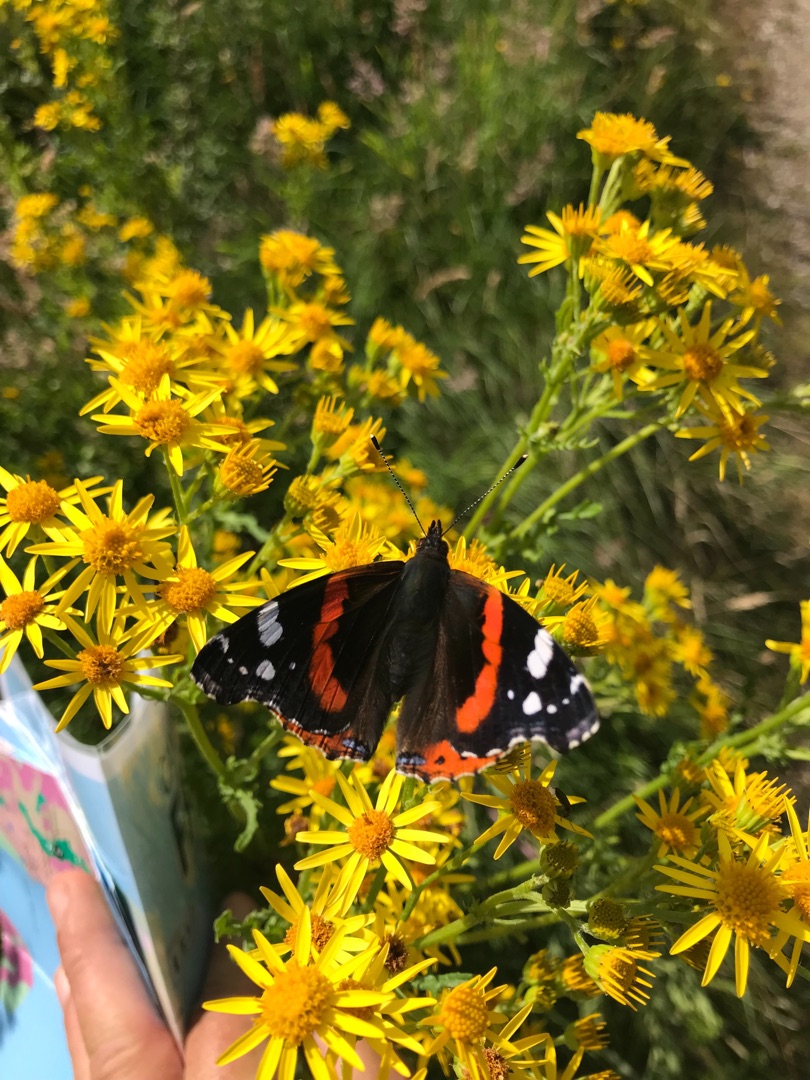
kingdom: Animalia
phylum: Arthropoda
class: Insecta
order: Lepidoptera
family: Nymphalidae
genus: Vanessa
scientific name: Vanessa atalanta
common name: Admiral
